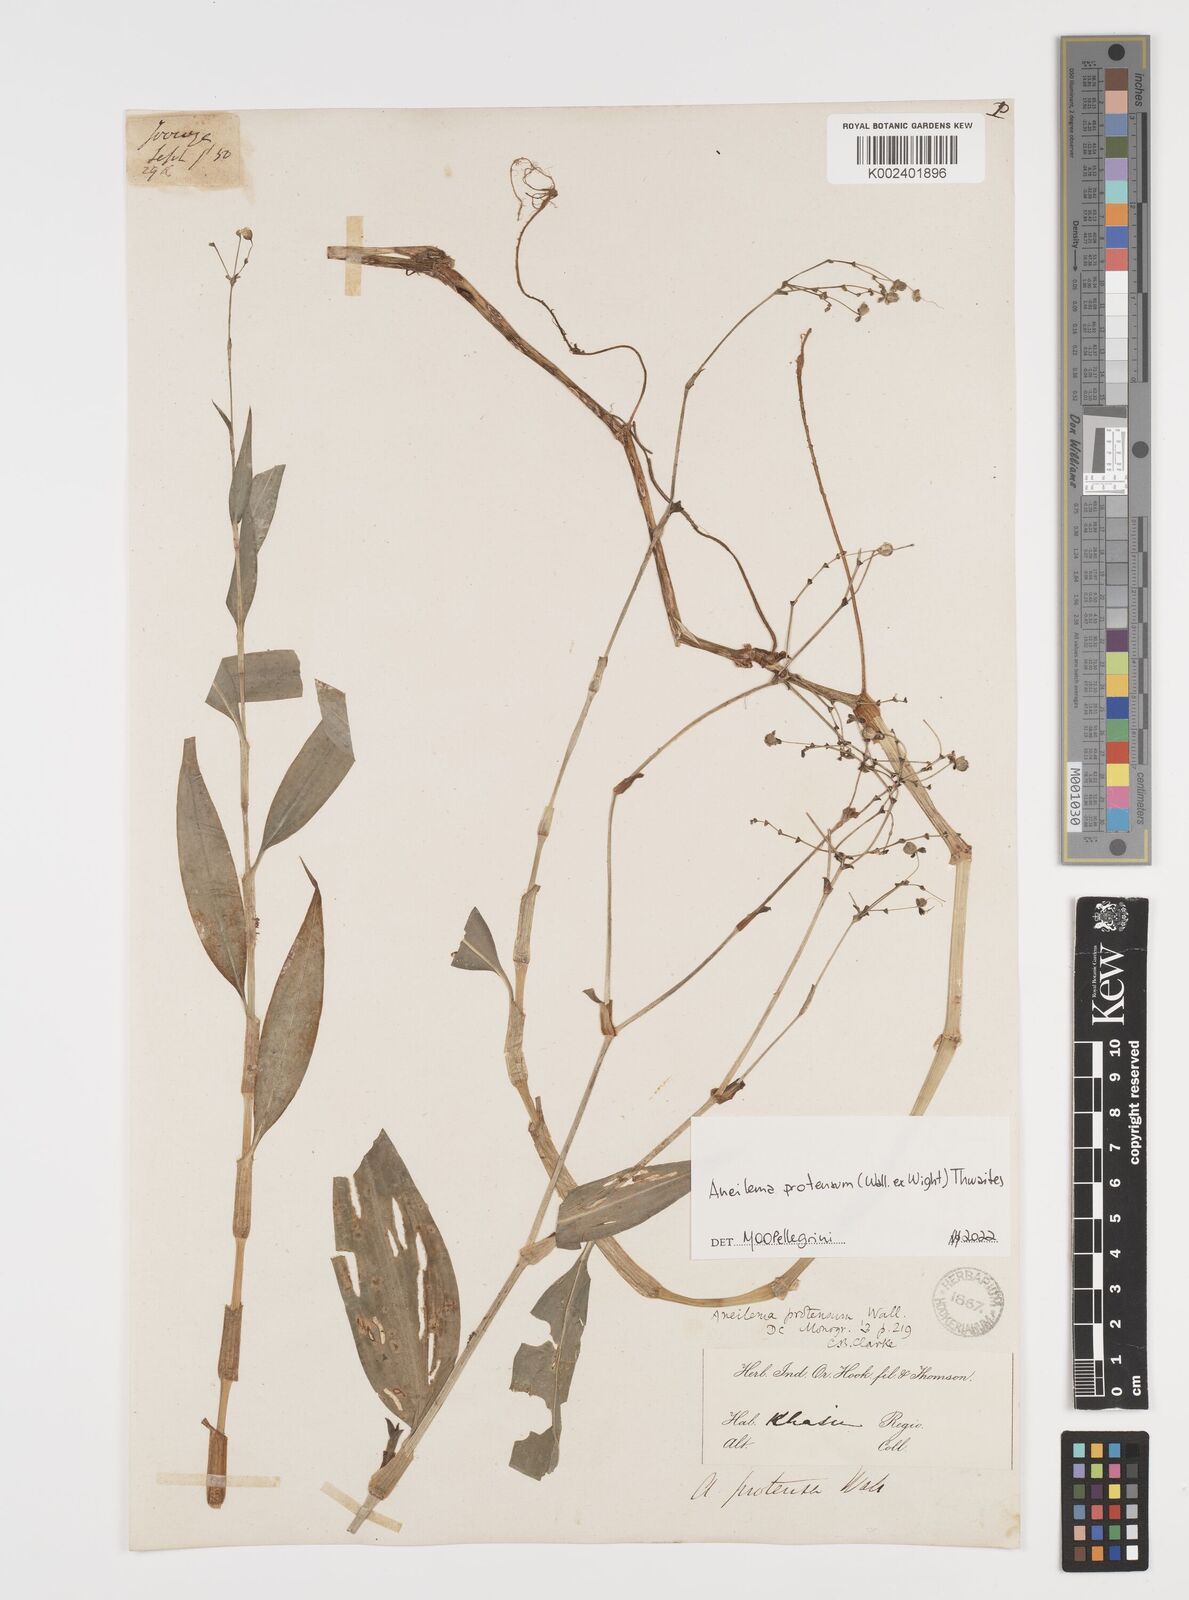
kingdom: Plantae
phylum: Tracheophyta
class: Liliopsida
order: Commelinales
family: Commelinaceae
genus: Rhopalephora
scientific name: Rhopalephora
